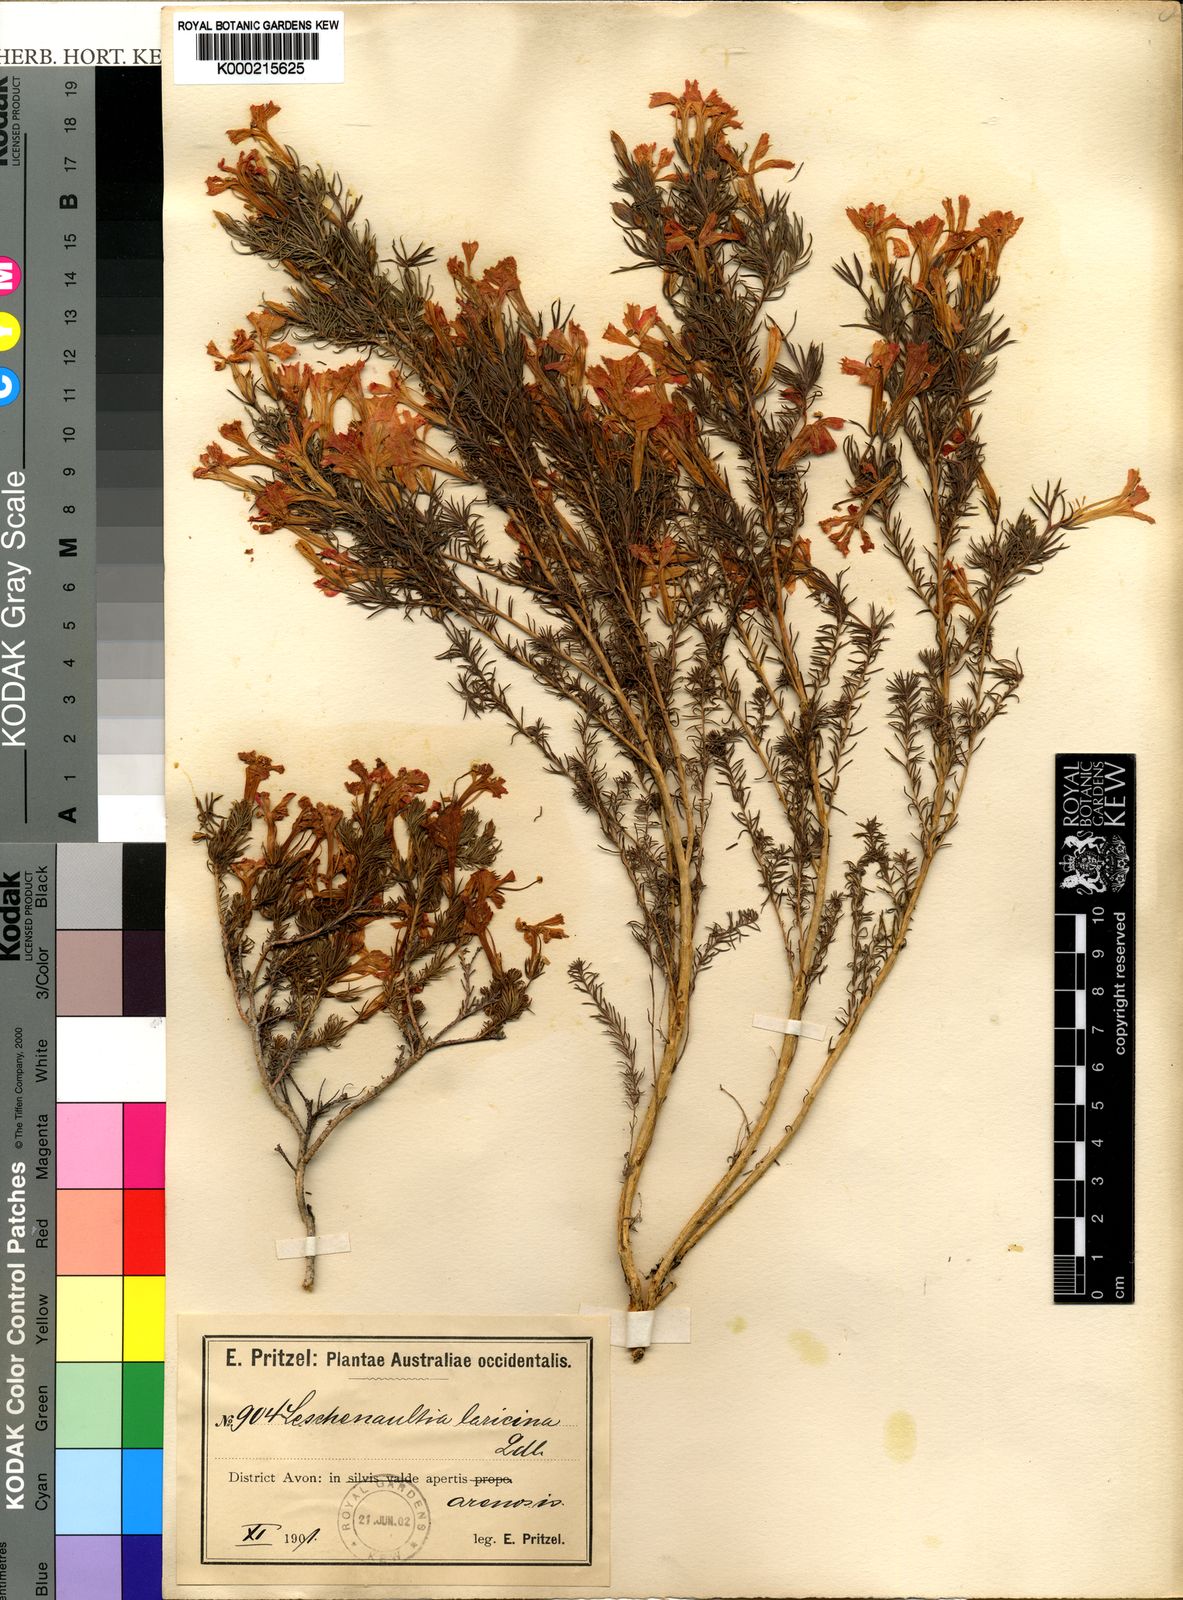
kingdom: Plantae
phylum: Tracheophyta
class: Magnoliopsida
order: Asterales
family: Goodeniaceae
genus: Leschenaultia
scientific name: Leschenaultia
